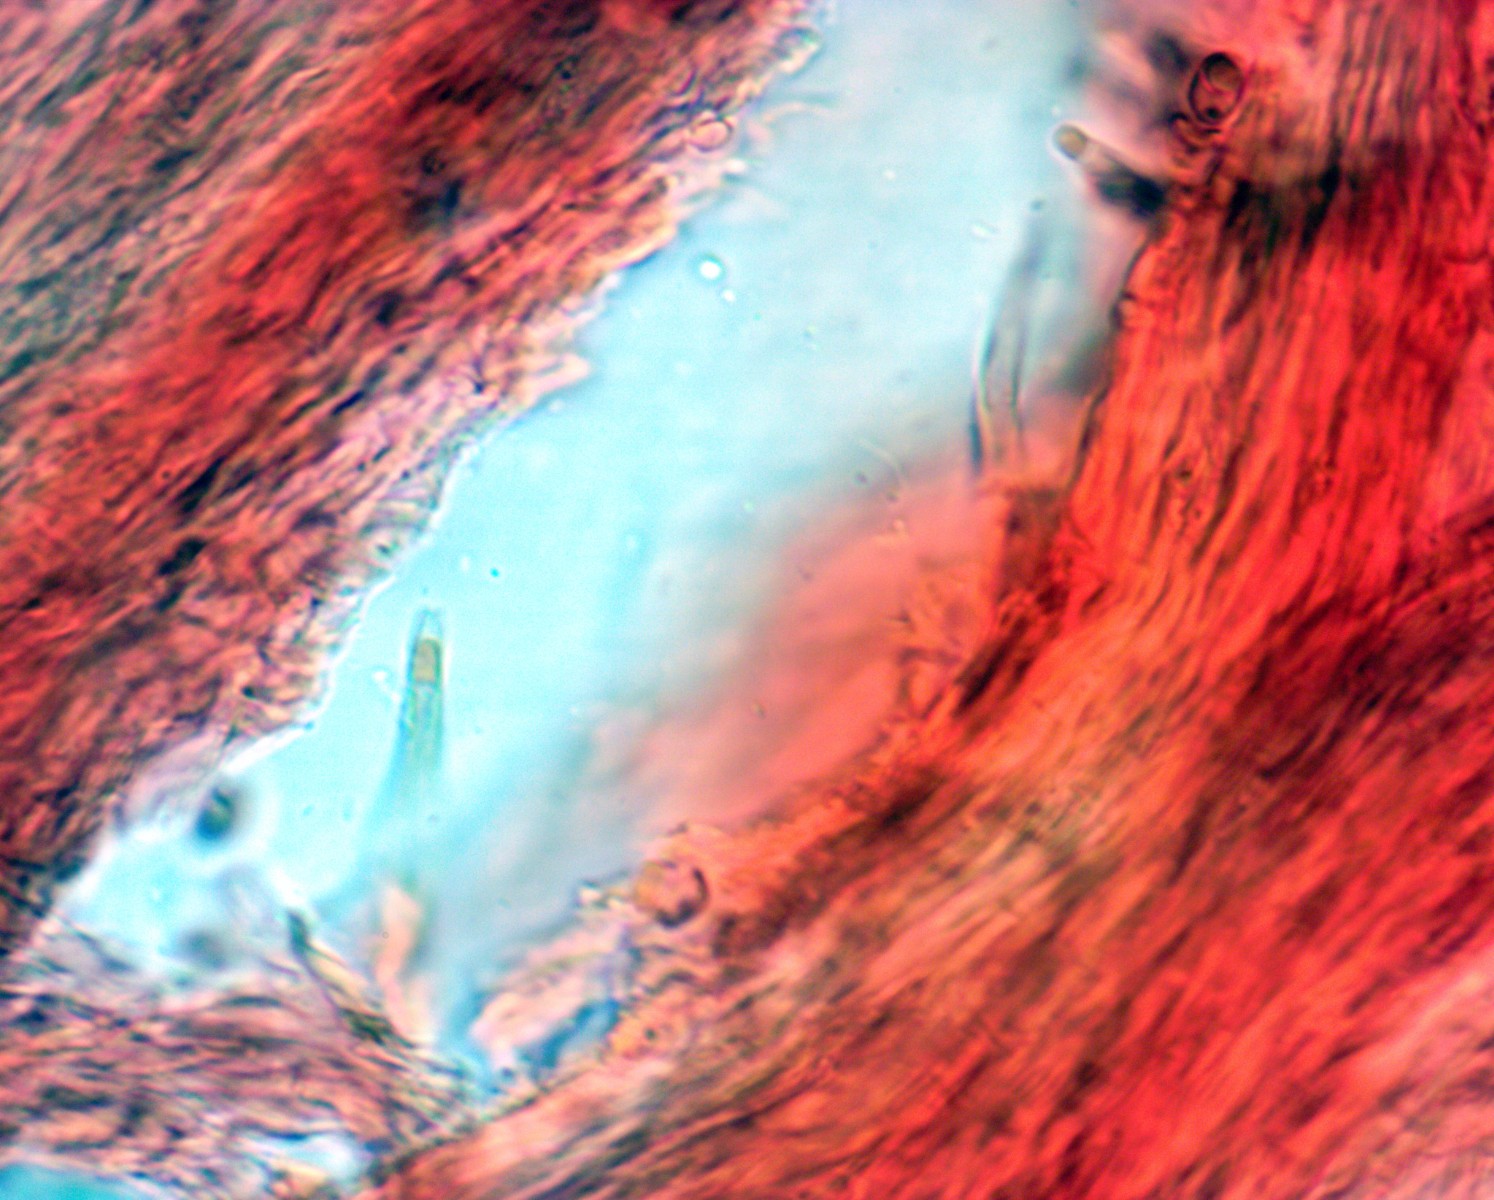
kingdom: Fungi
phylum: Basidiomycota
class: Agaricomycetes
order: Polyporales
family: Meruliaceae
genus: Physisporinus
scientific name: Physisporinus vitreus
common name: mastesvamp
